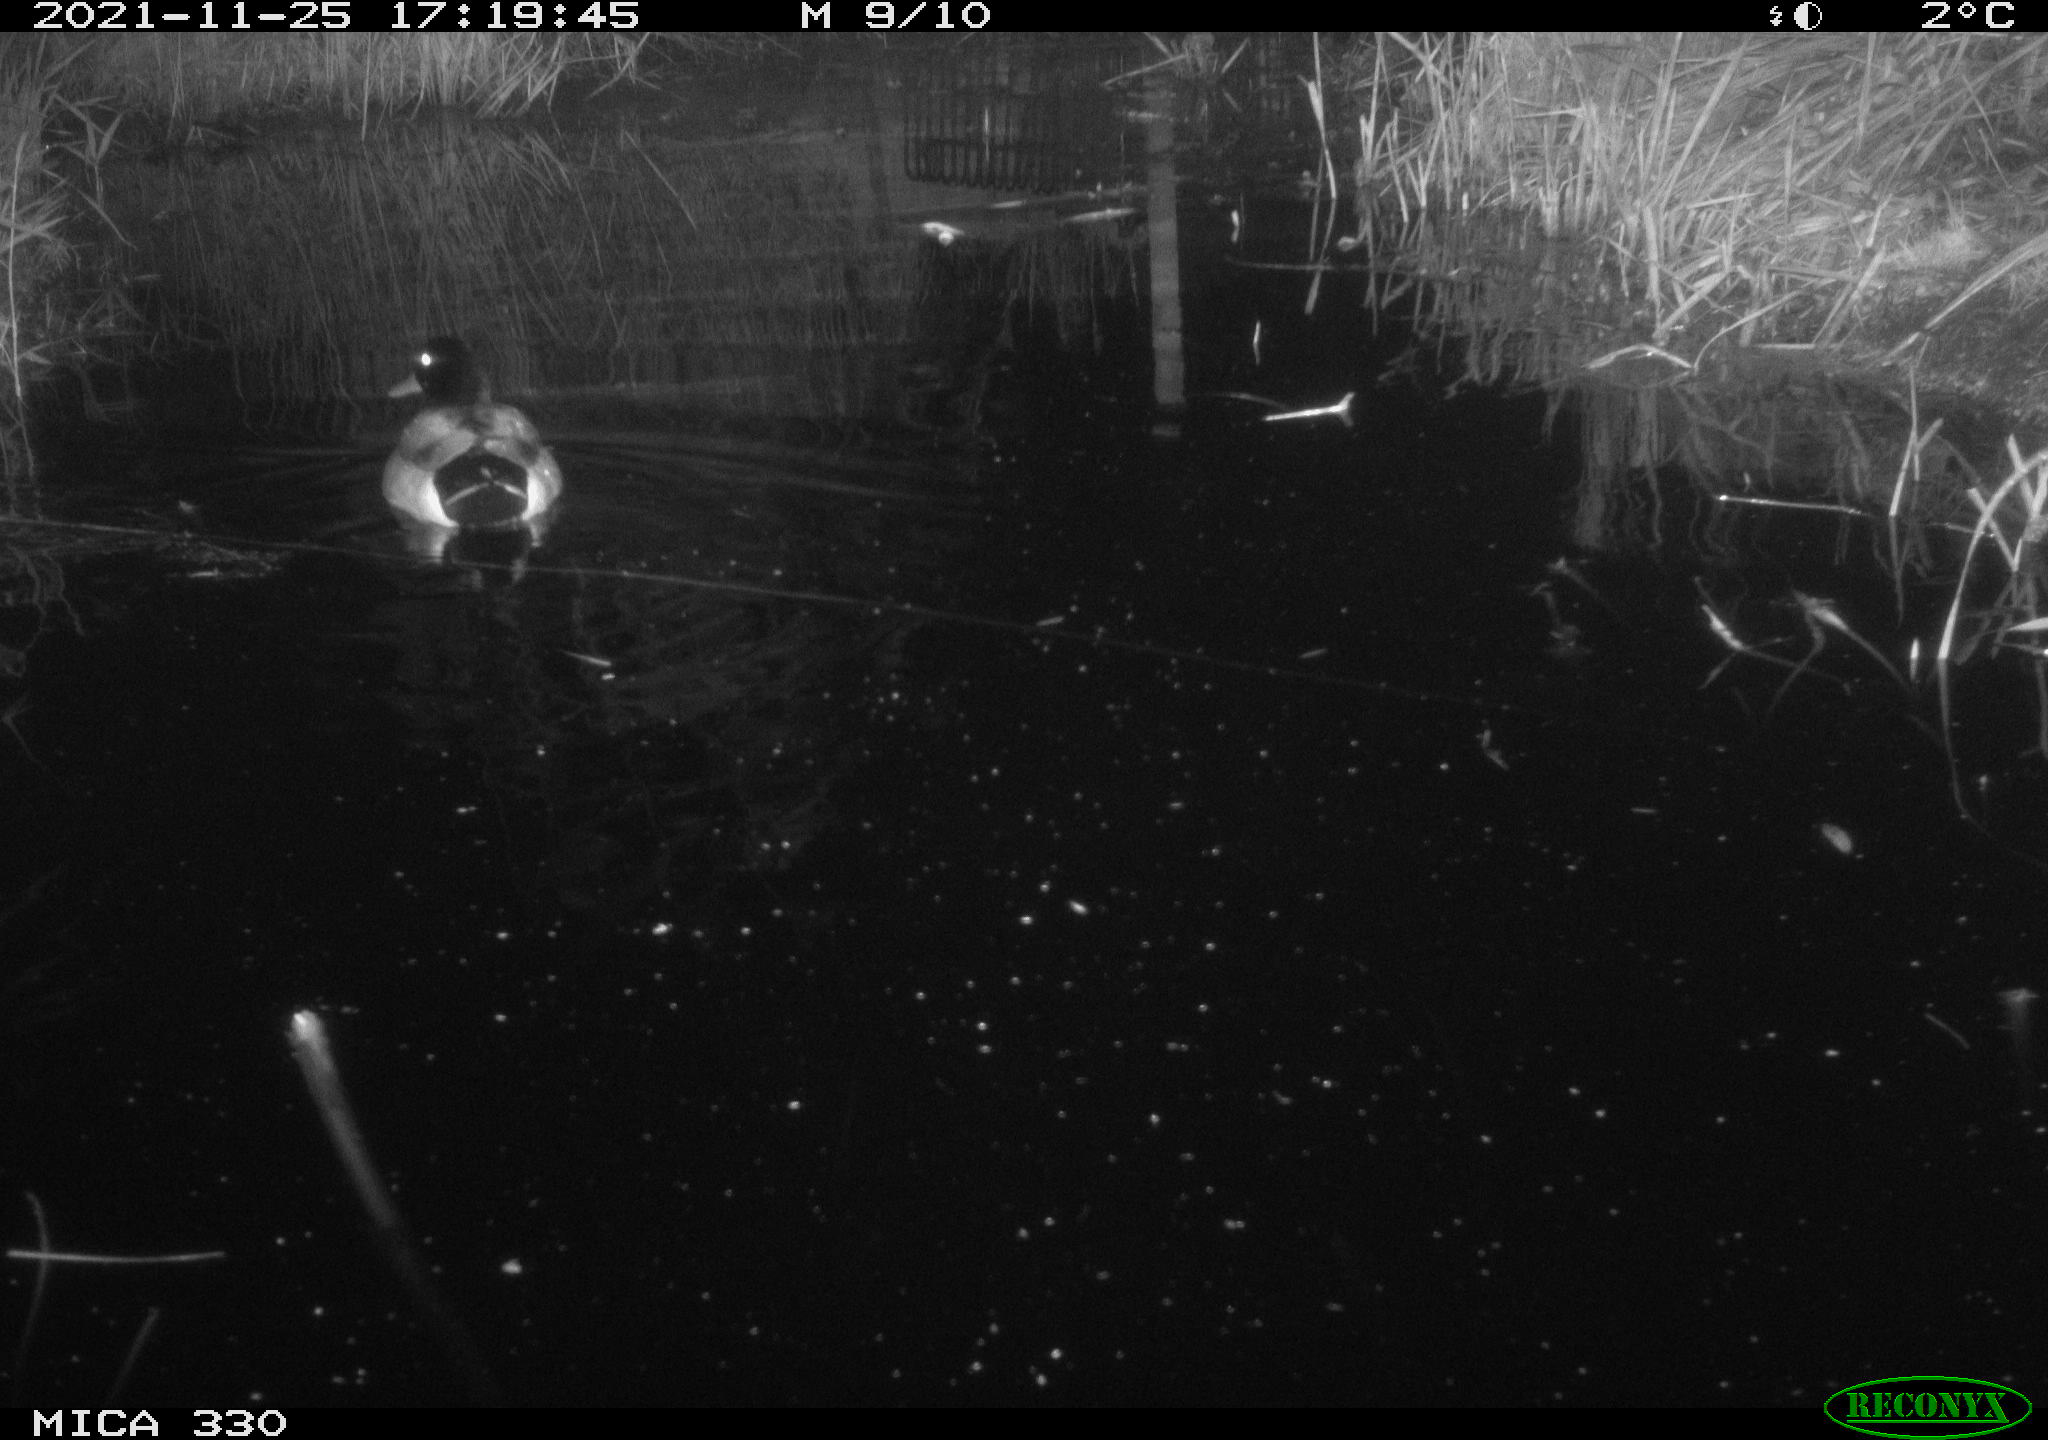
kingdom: Animalia
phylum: Chordata
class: Aves
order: Anseriformes
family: Anatidae
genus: Anas
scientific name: Anas platyrhynchos
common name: Mallard
